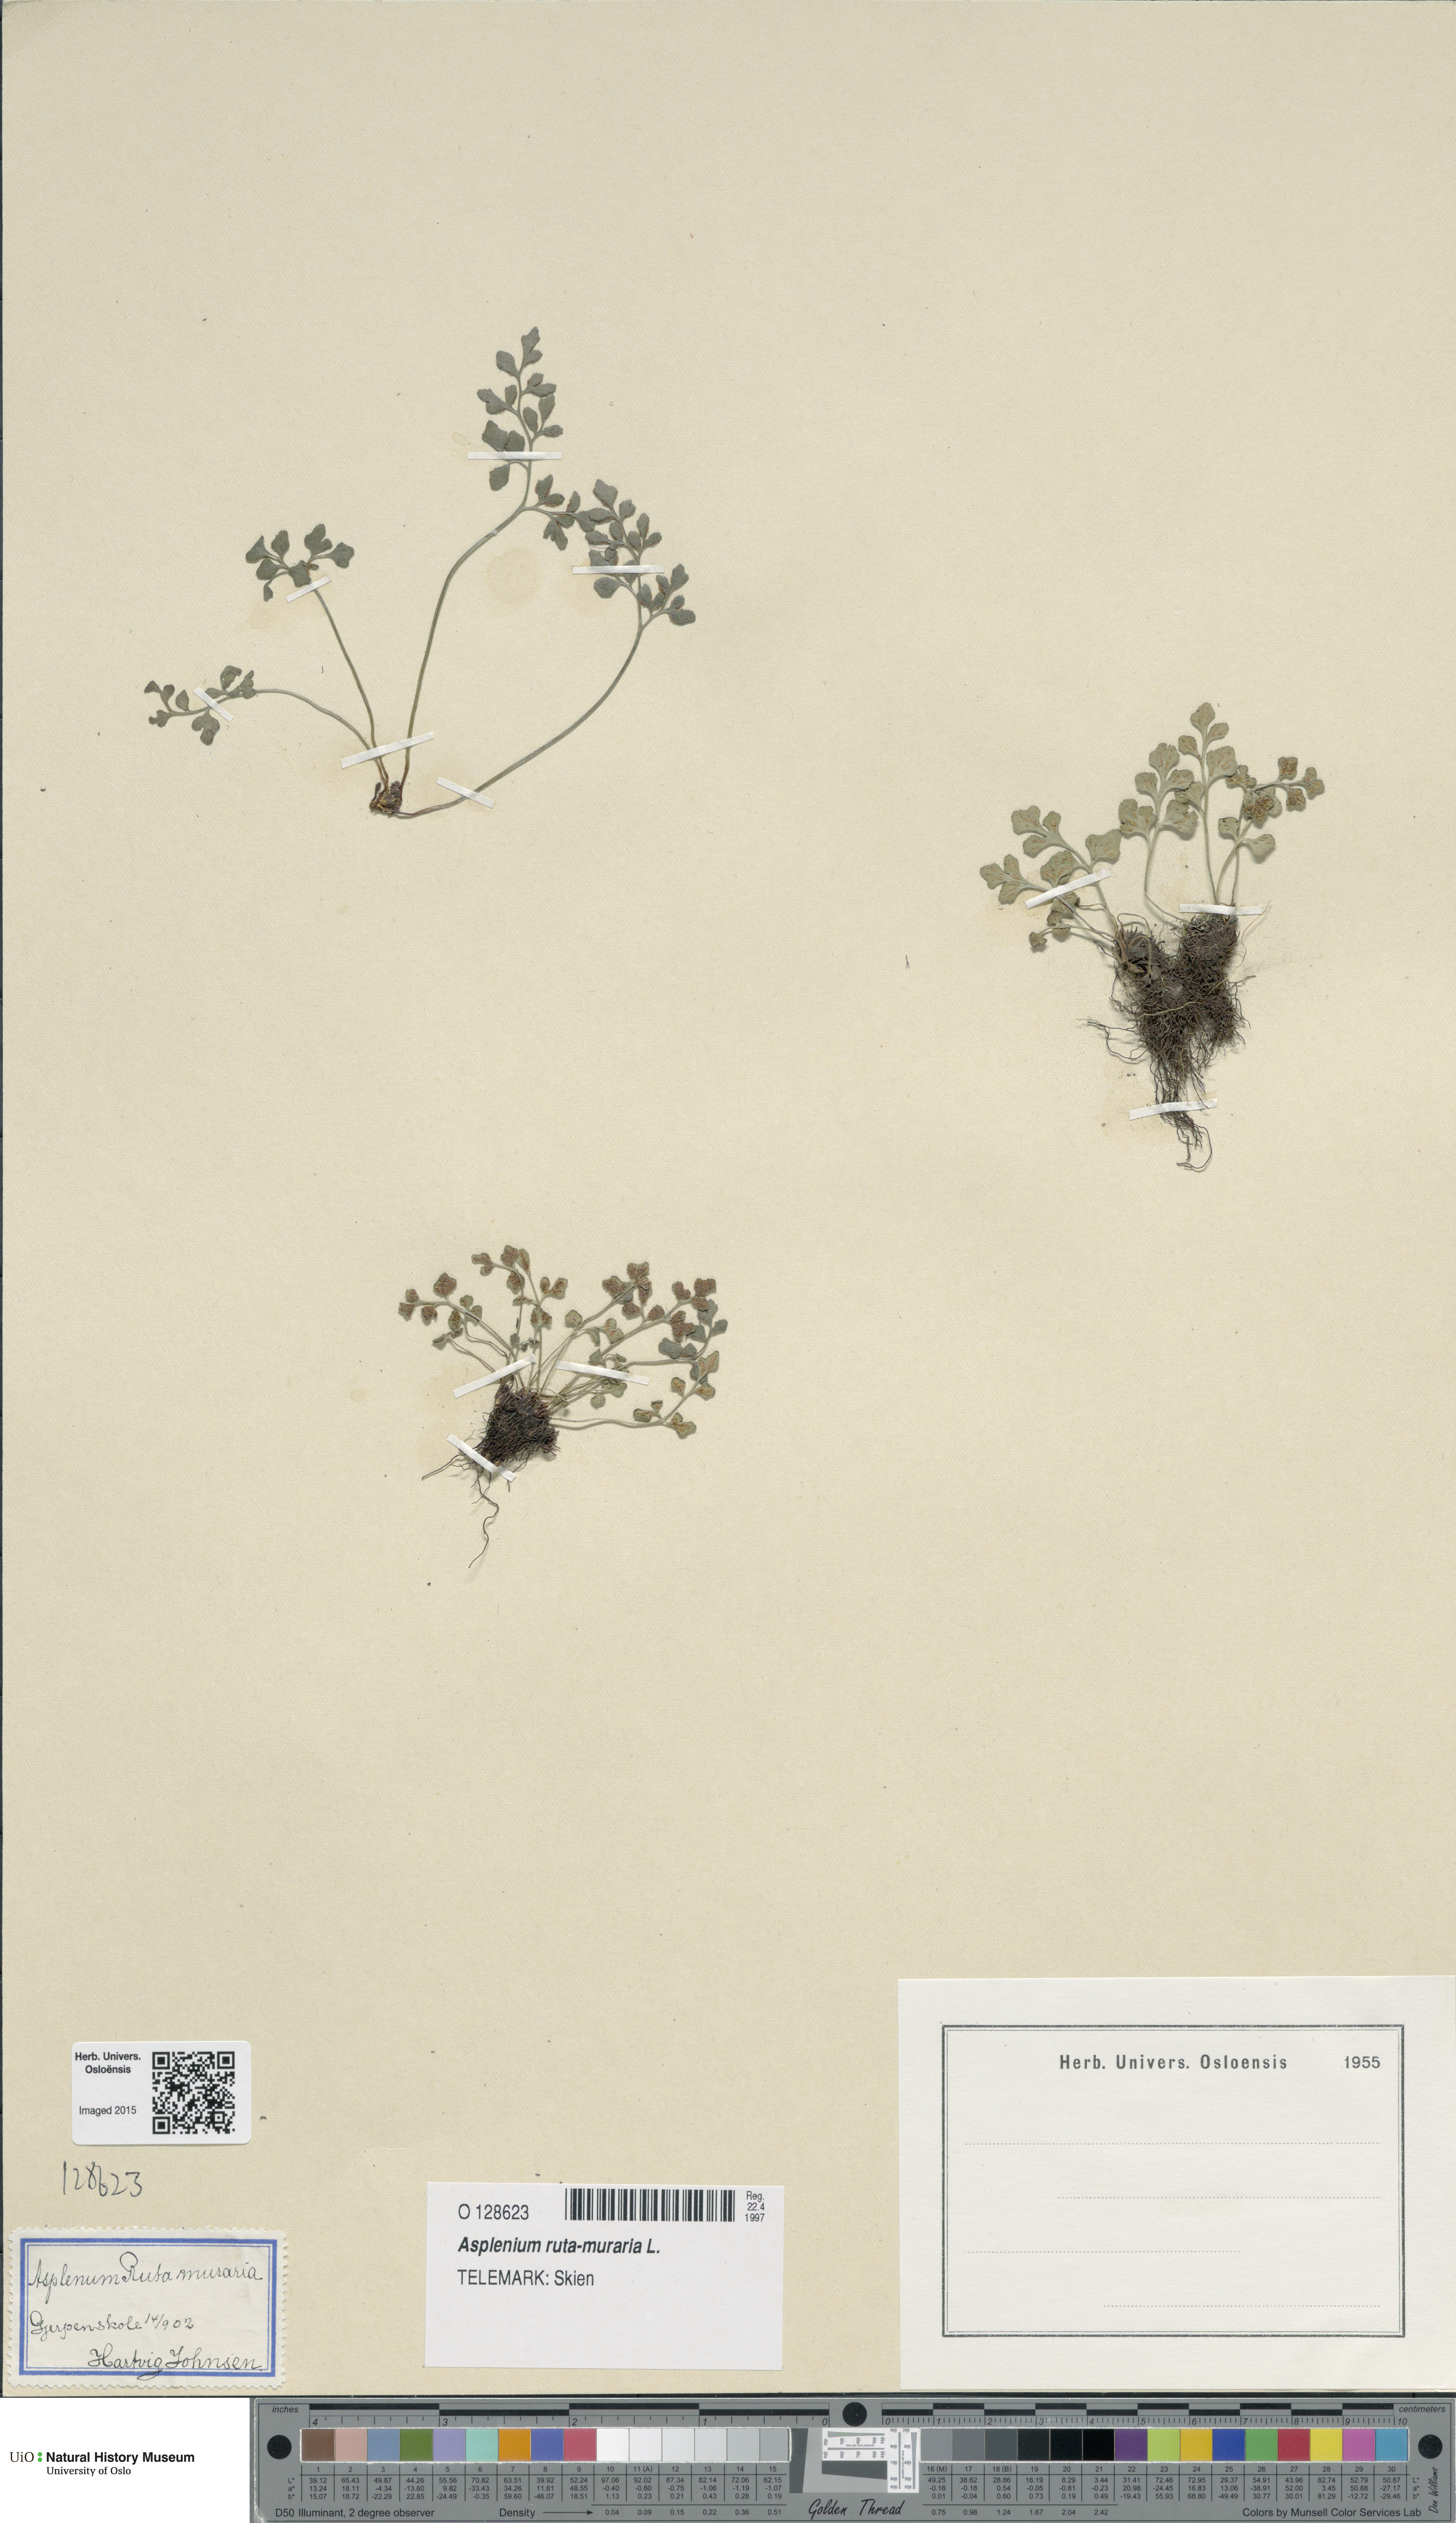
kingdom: Plantae
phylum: Tracheophyta
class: Polypodiopsida
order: Polypodiales
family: Aspleniaceae
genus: Asplenium
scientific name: Asplenium ruta-muraria
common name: Wall-rue
